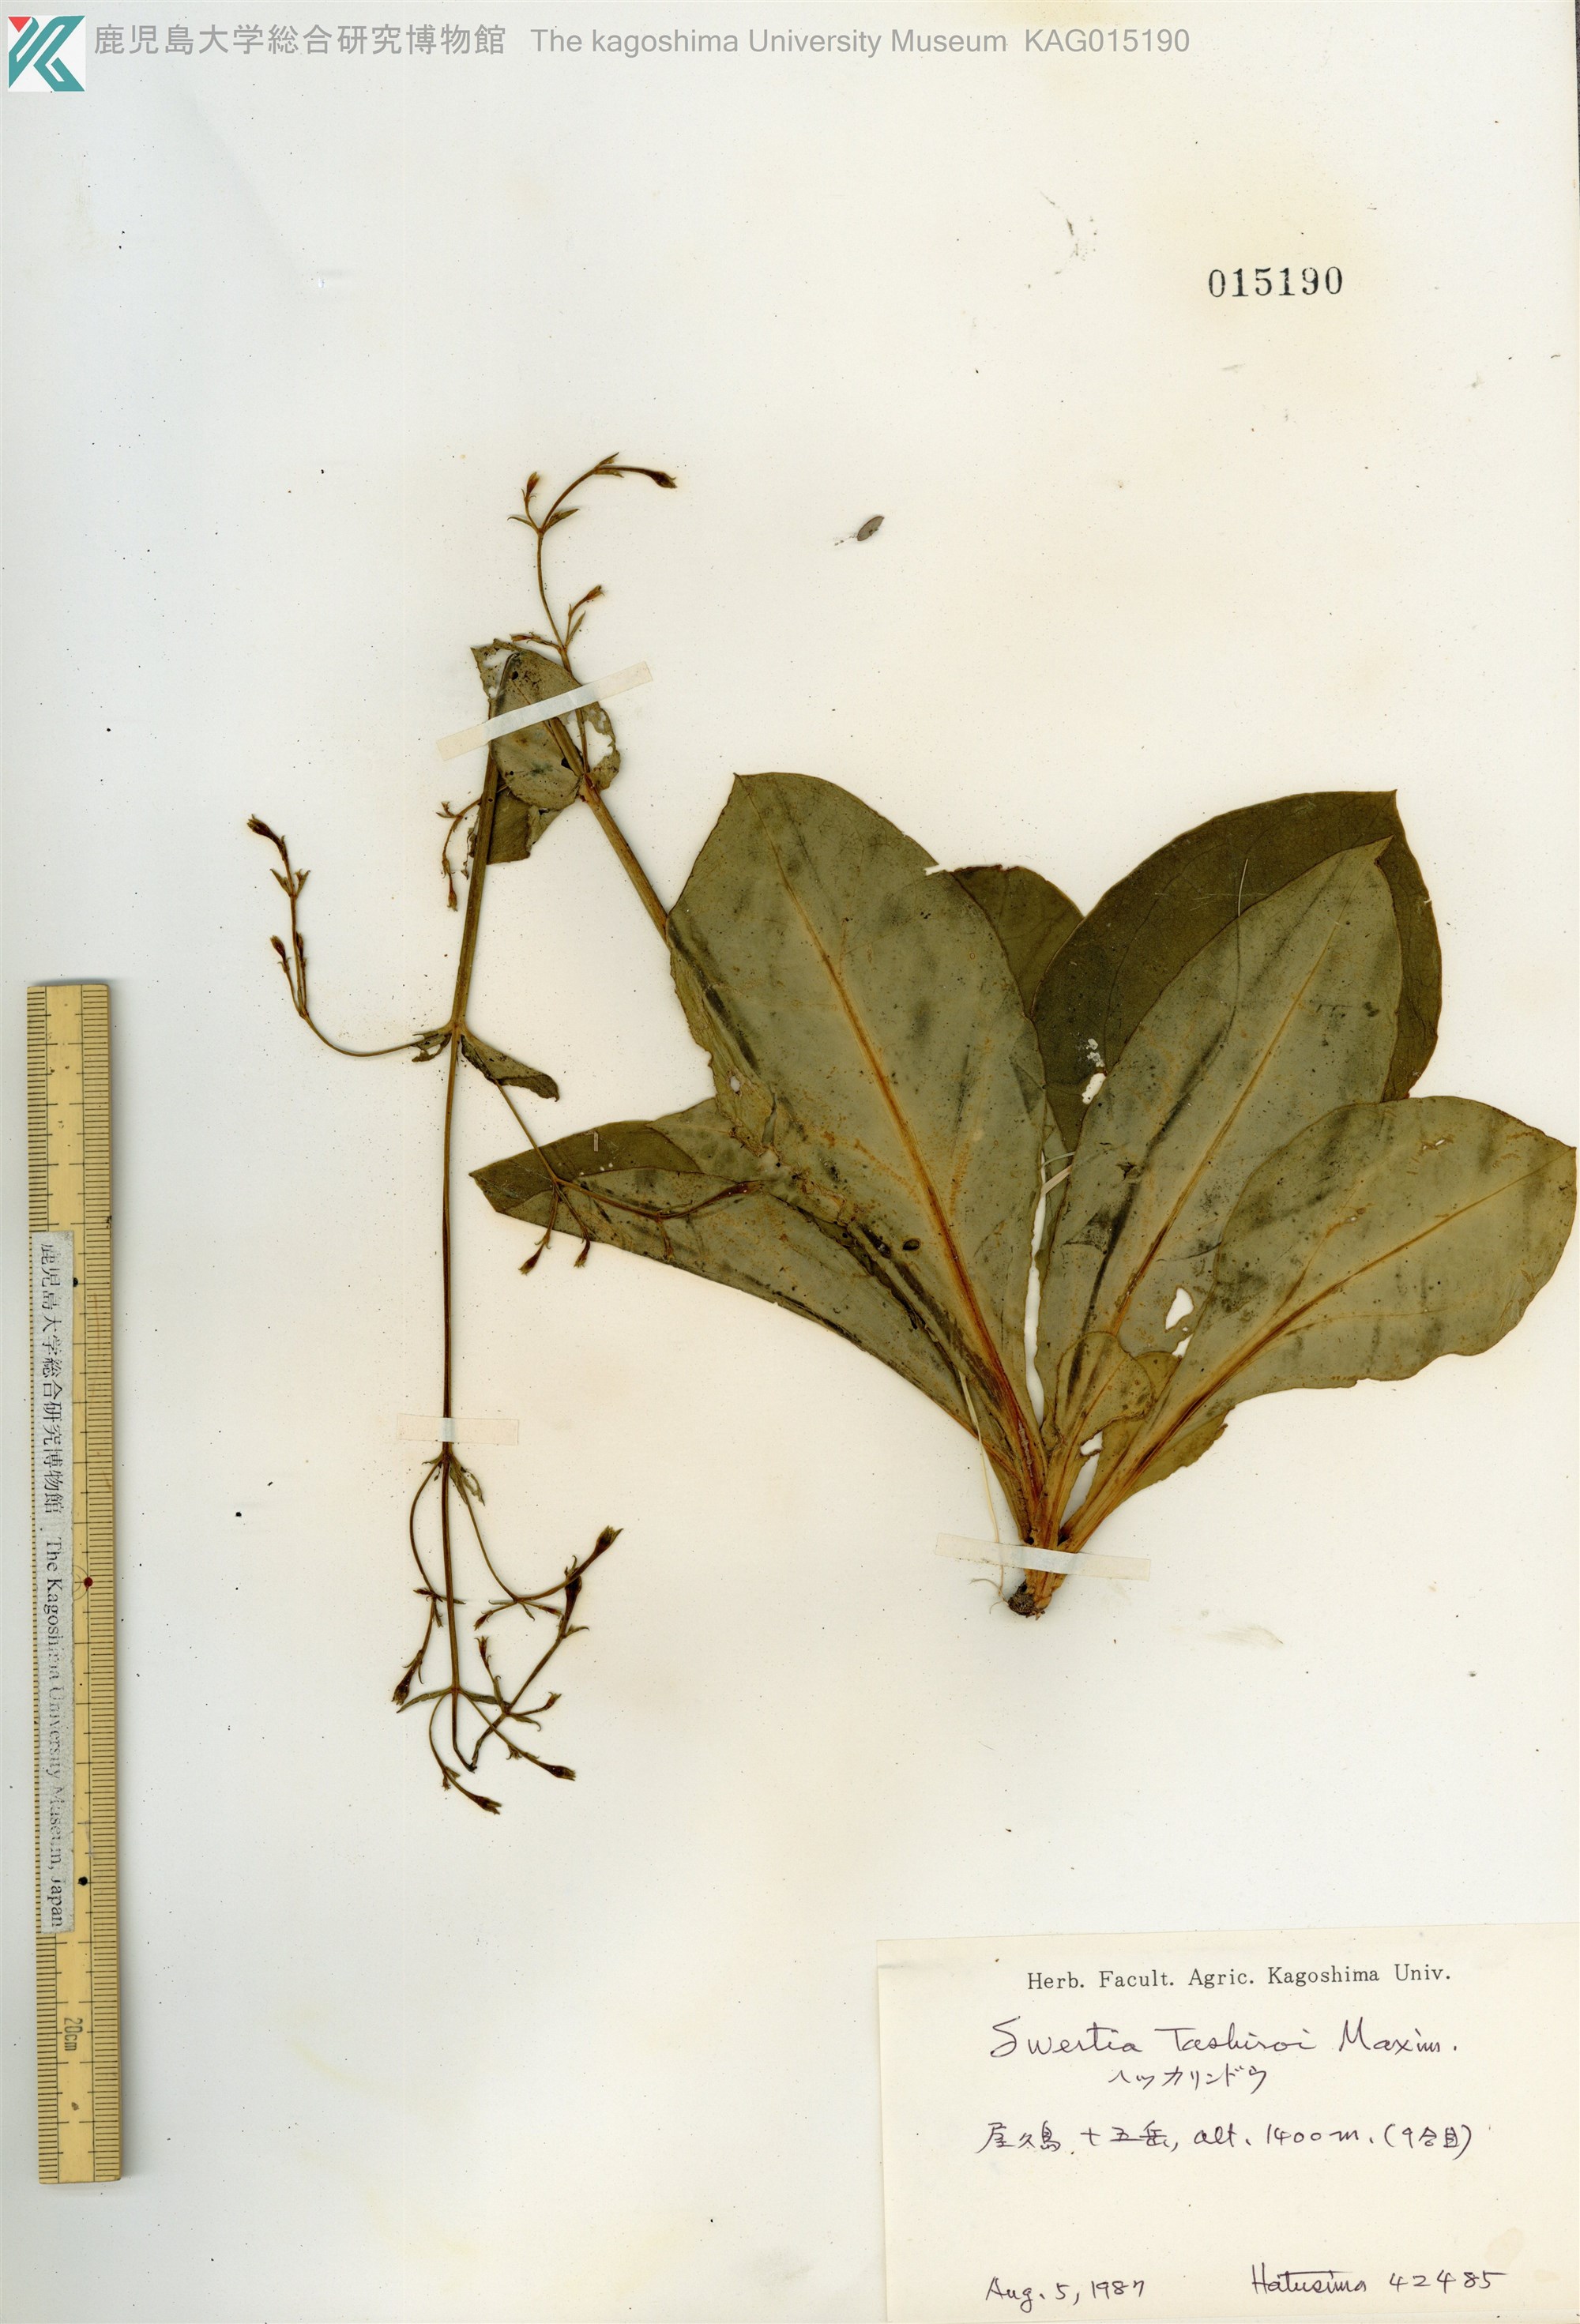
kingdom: Plantae
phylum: Tracheophyta
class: Magnoliopsida
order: Gentianales
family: Gentianaceae
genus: Swertia
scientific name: Swertia tashiroi
